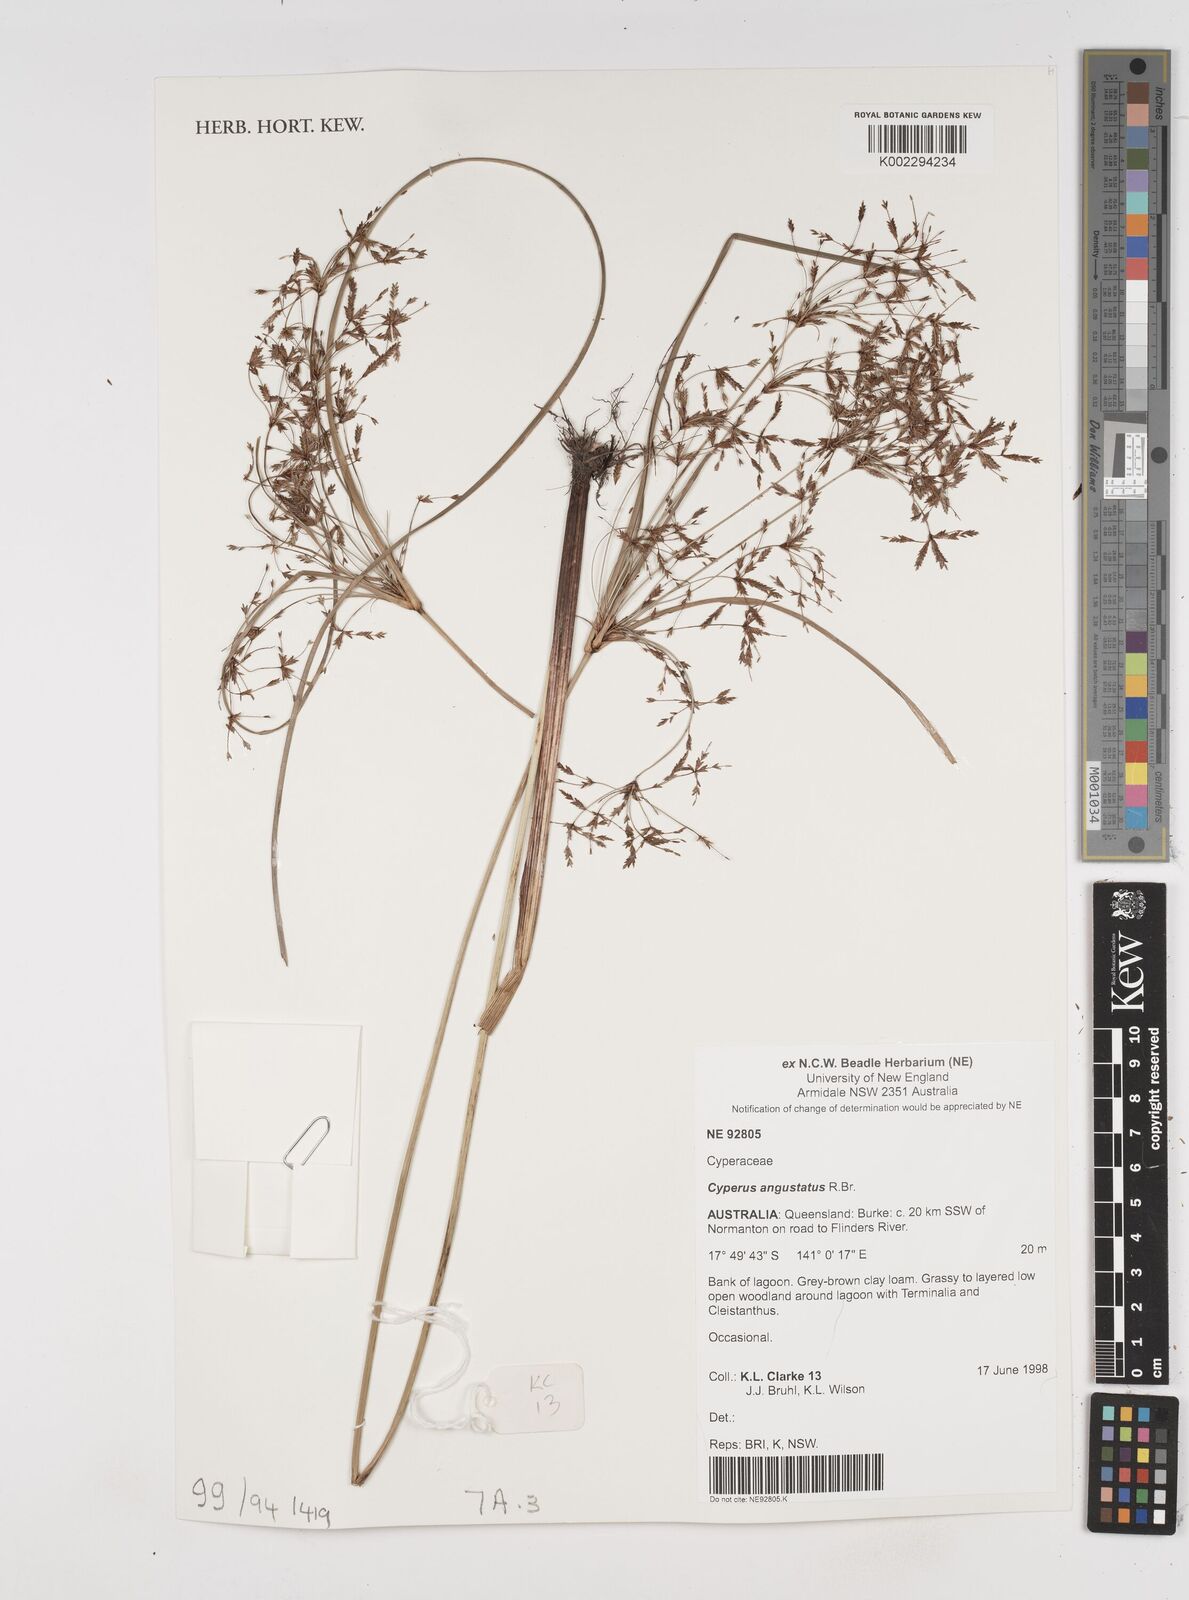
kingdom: Plantae
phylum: Tracheophyta
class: Liliopsida
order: Poales
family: Cyperaceae
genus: Cyperus
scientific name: Cyperus angustatus
